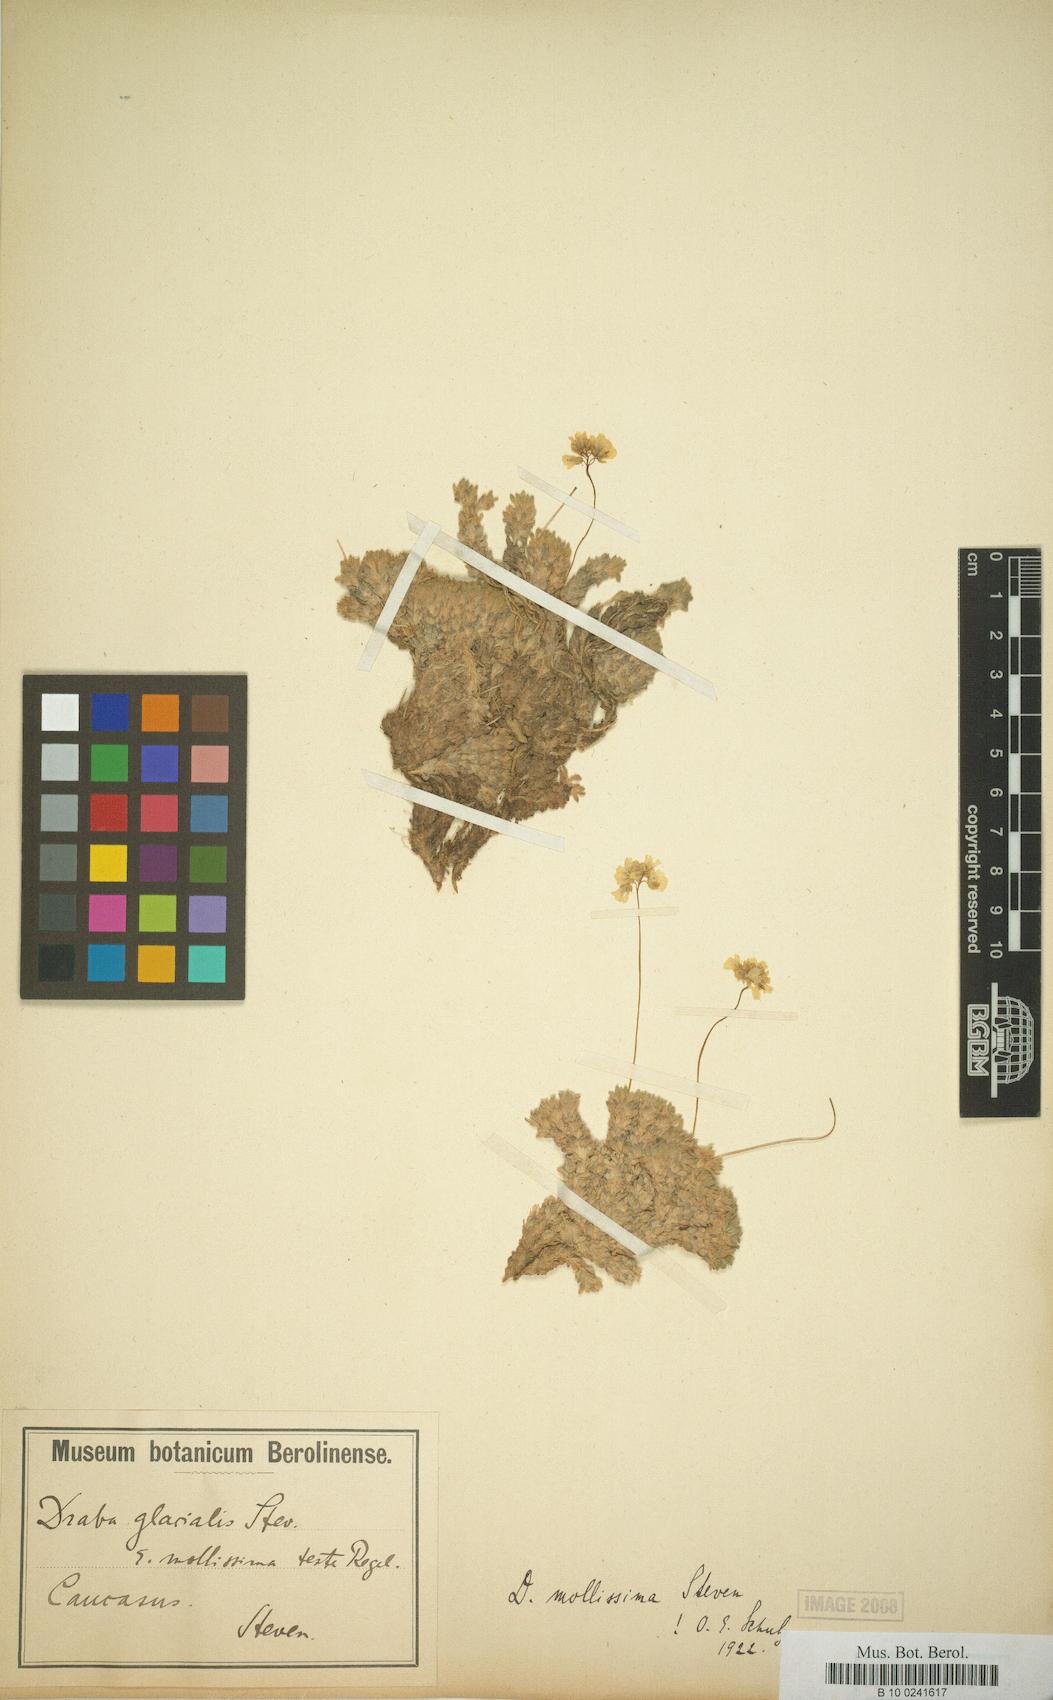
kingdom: Plantae
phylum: Tracheophyta
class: Magnoliopsida
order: Brassicales
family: Brassicaceae
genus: Draba
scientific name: Draba mollissima
